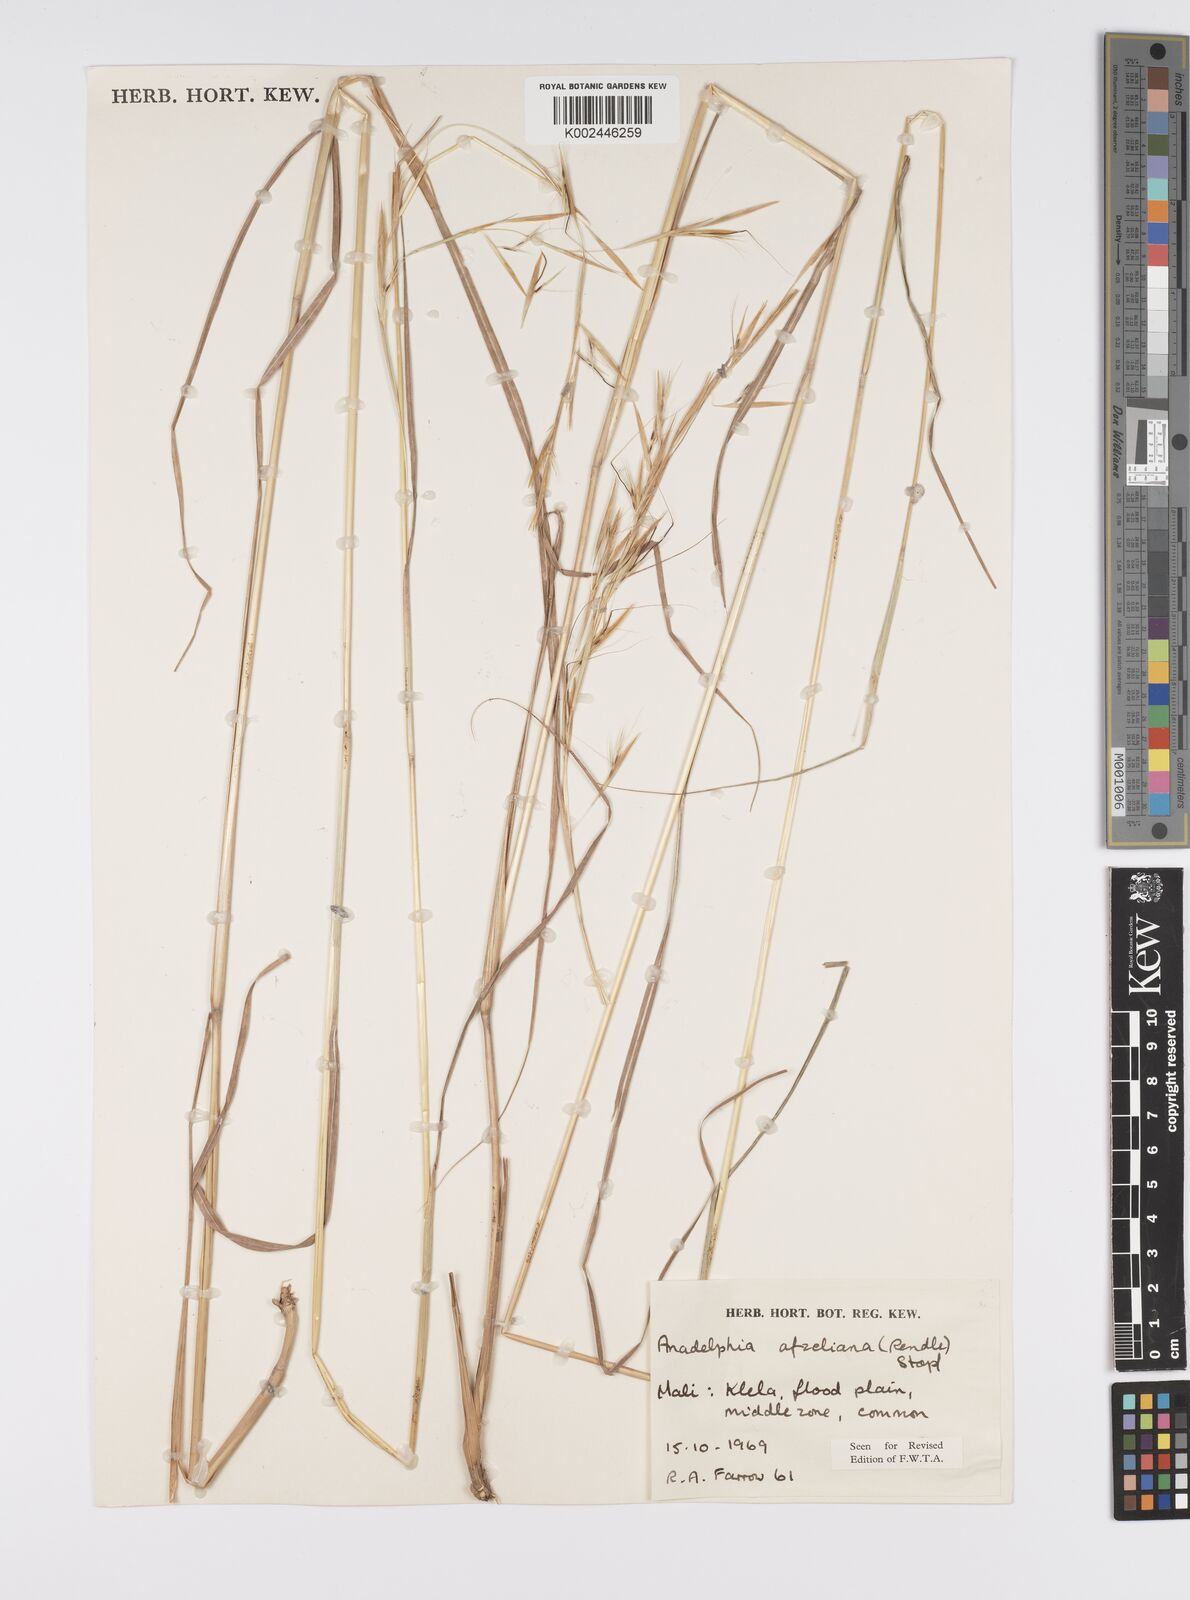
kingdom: Plantae
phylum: Tracheophyta
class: Liliopsida
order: Poales
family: Poaceae
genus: Anadelphia
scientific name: Anadelphia afzeliana
